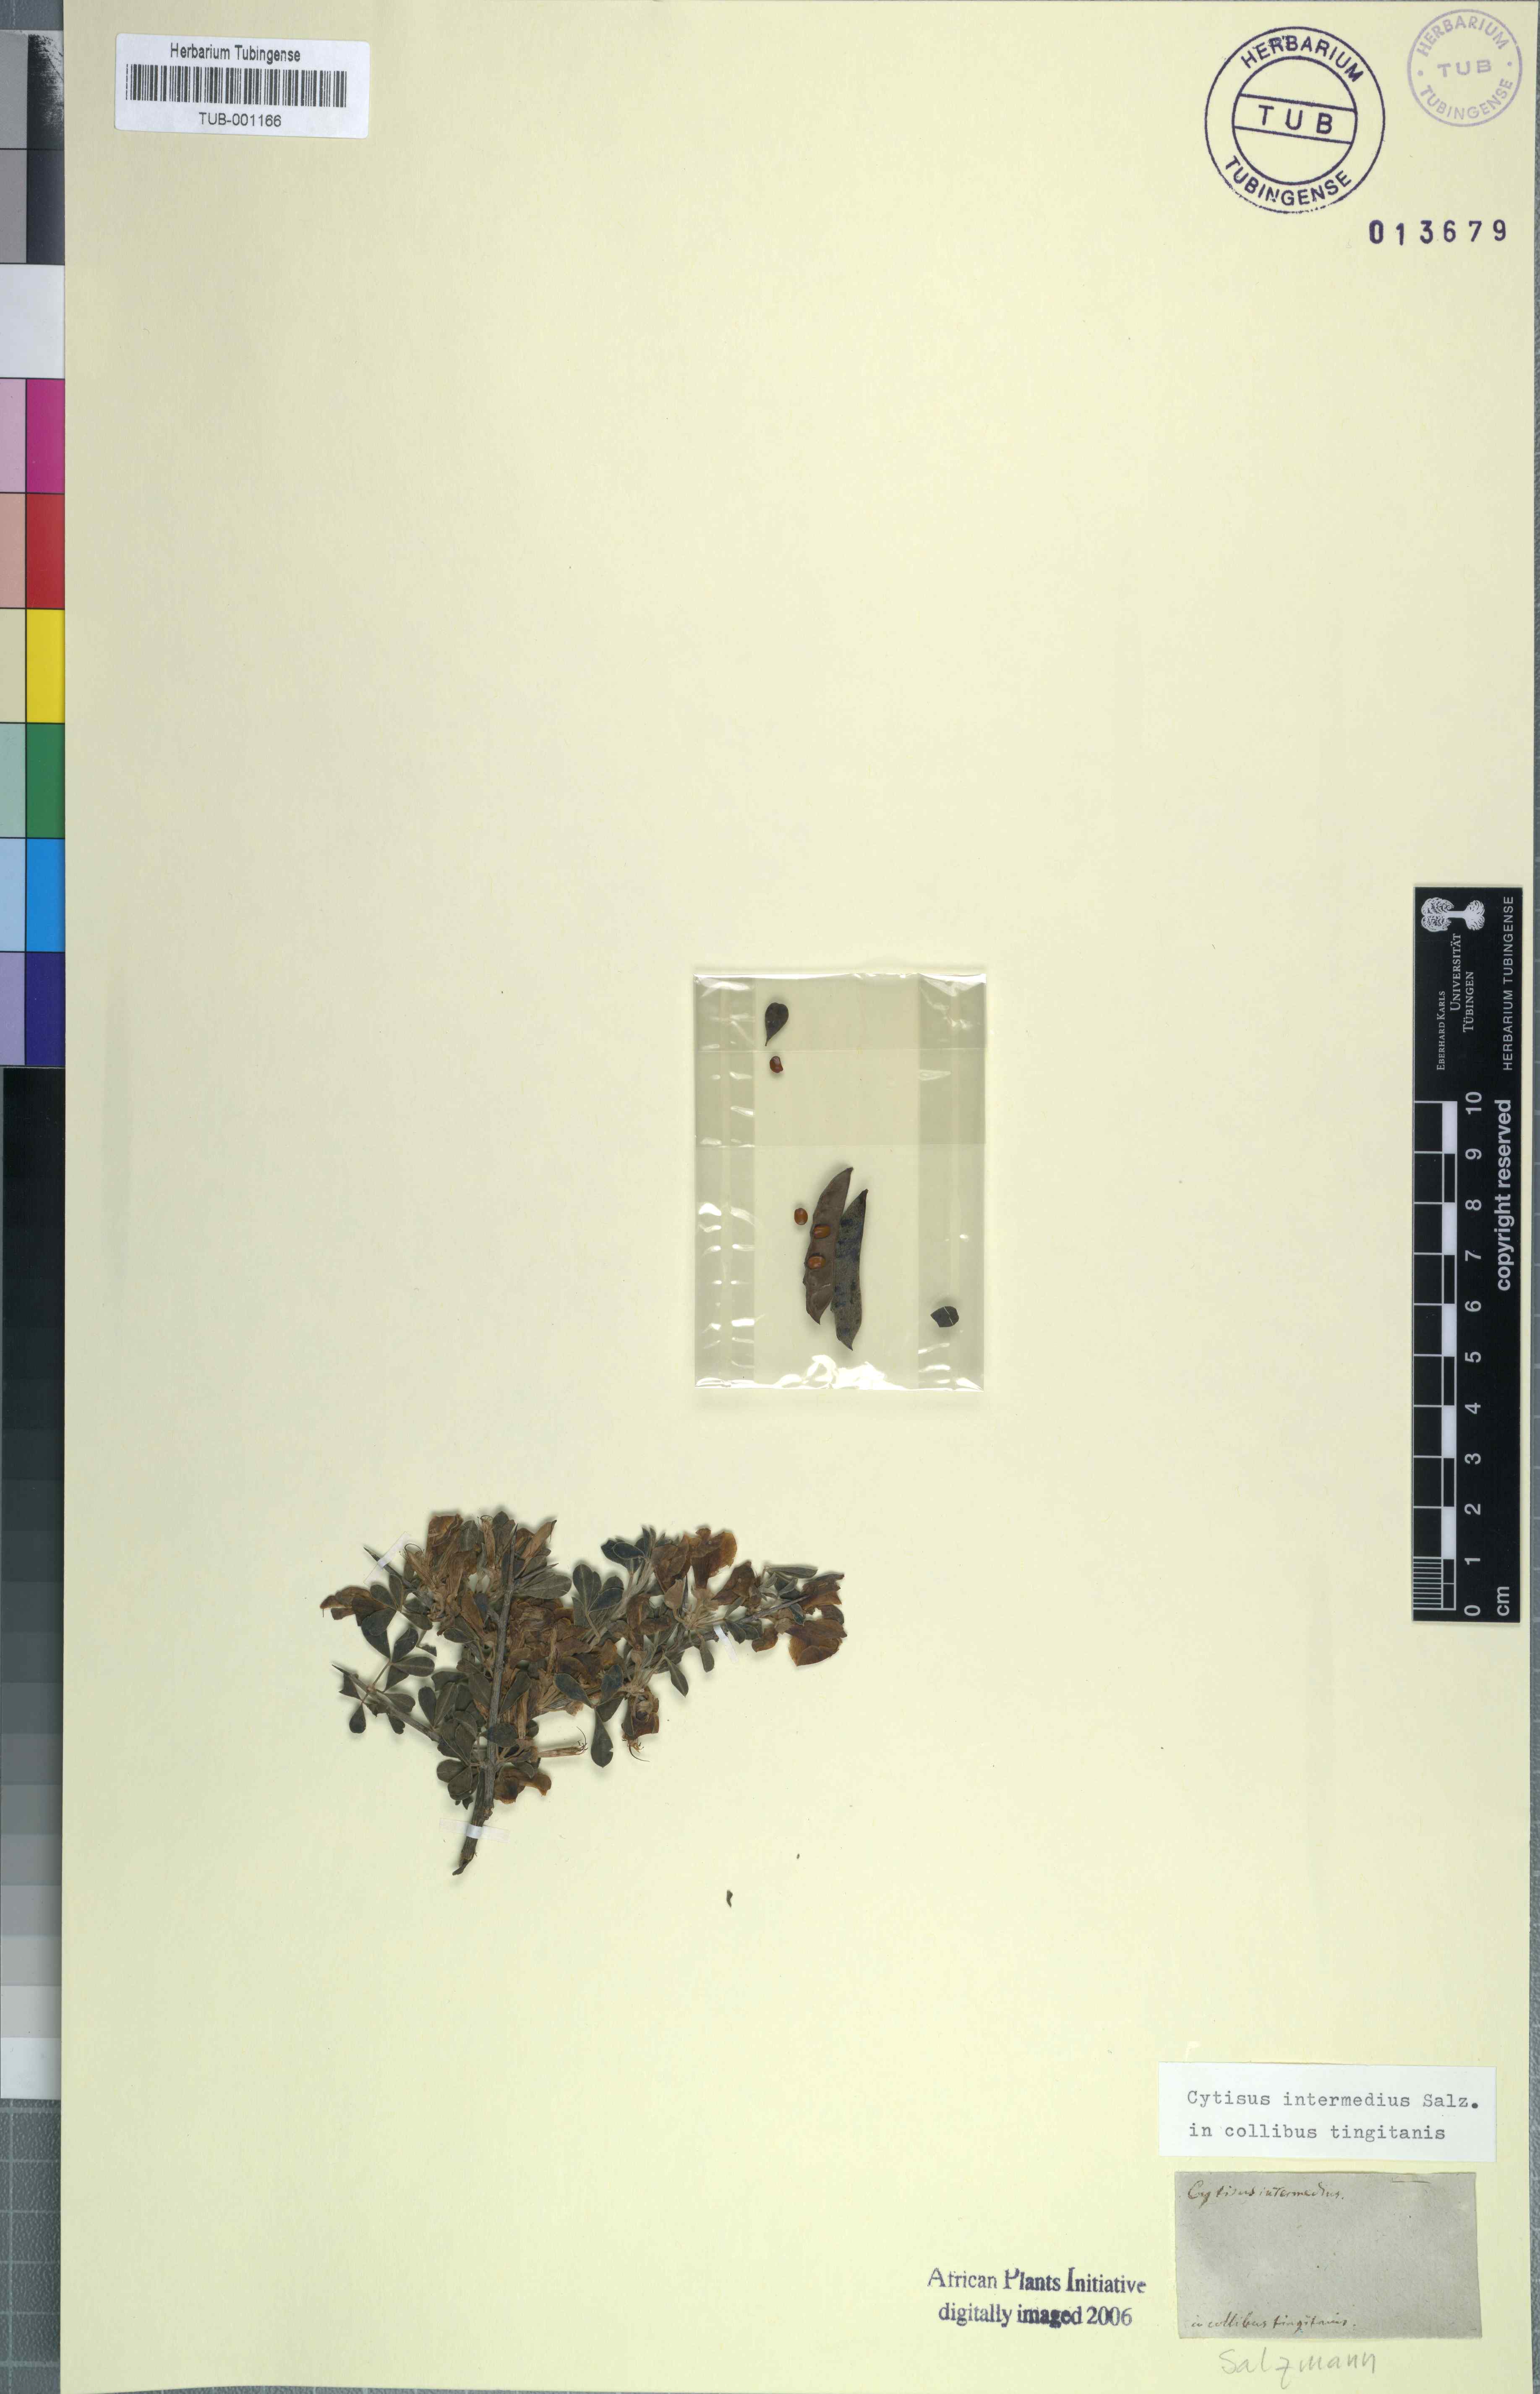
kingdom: Plantae
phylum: Tracheophyta
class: Magnoliopsida
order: Fabales
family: Fabaceae
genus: Calicotome
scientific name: Calicotome intermedia
